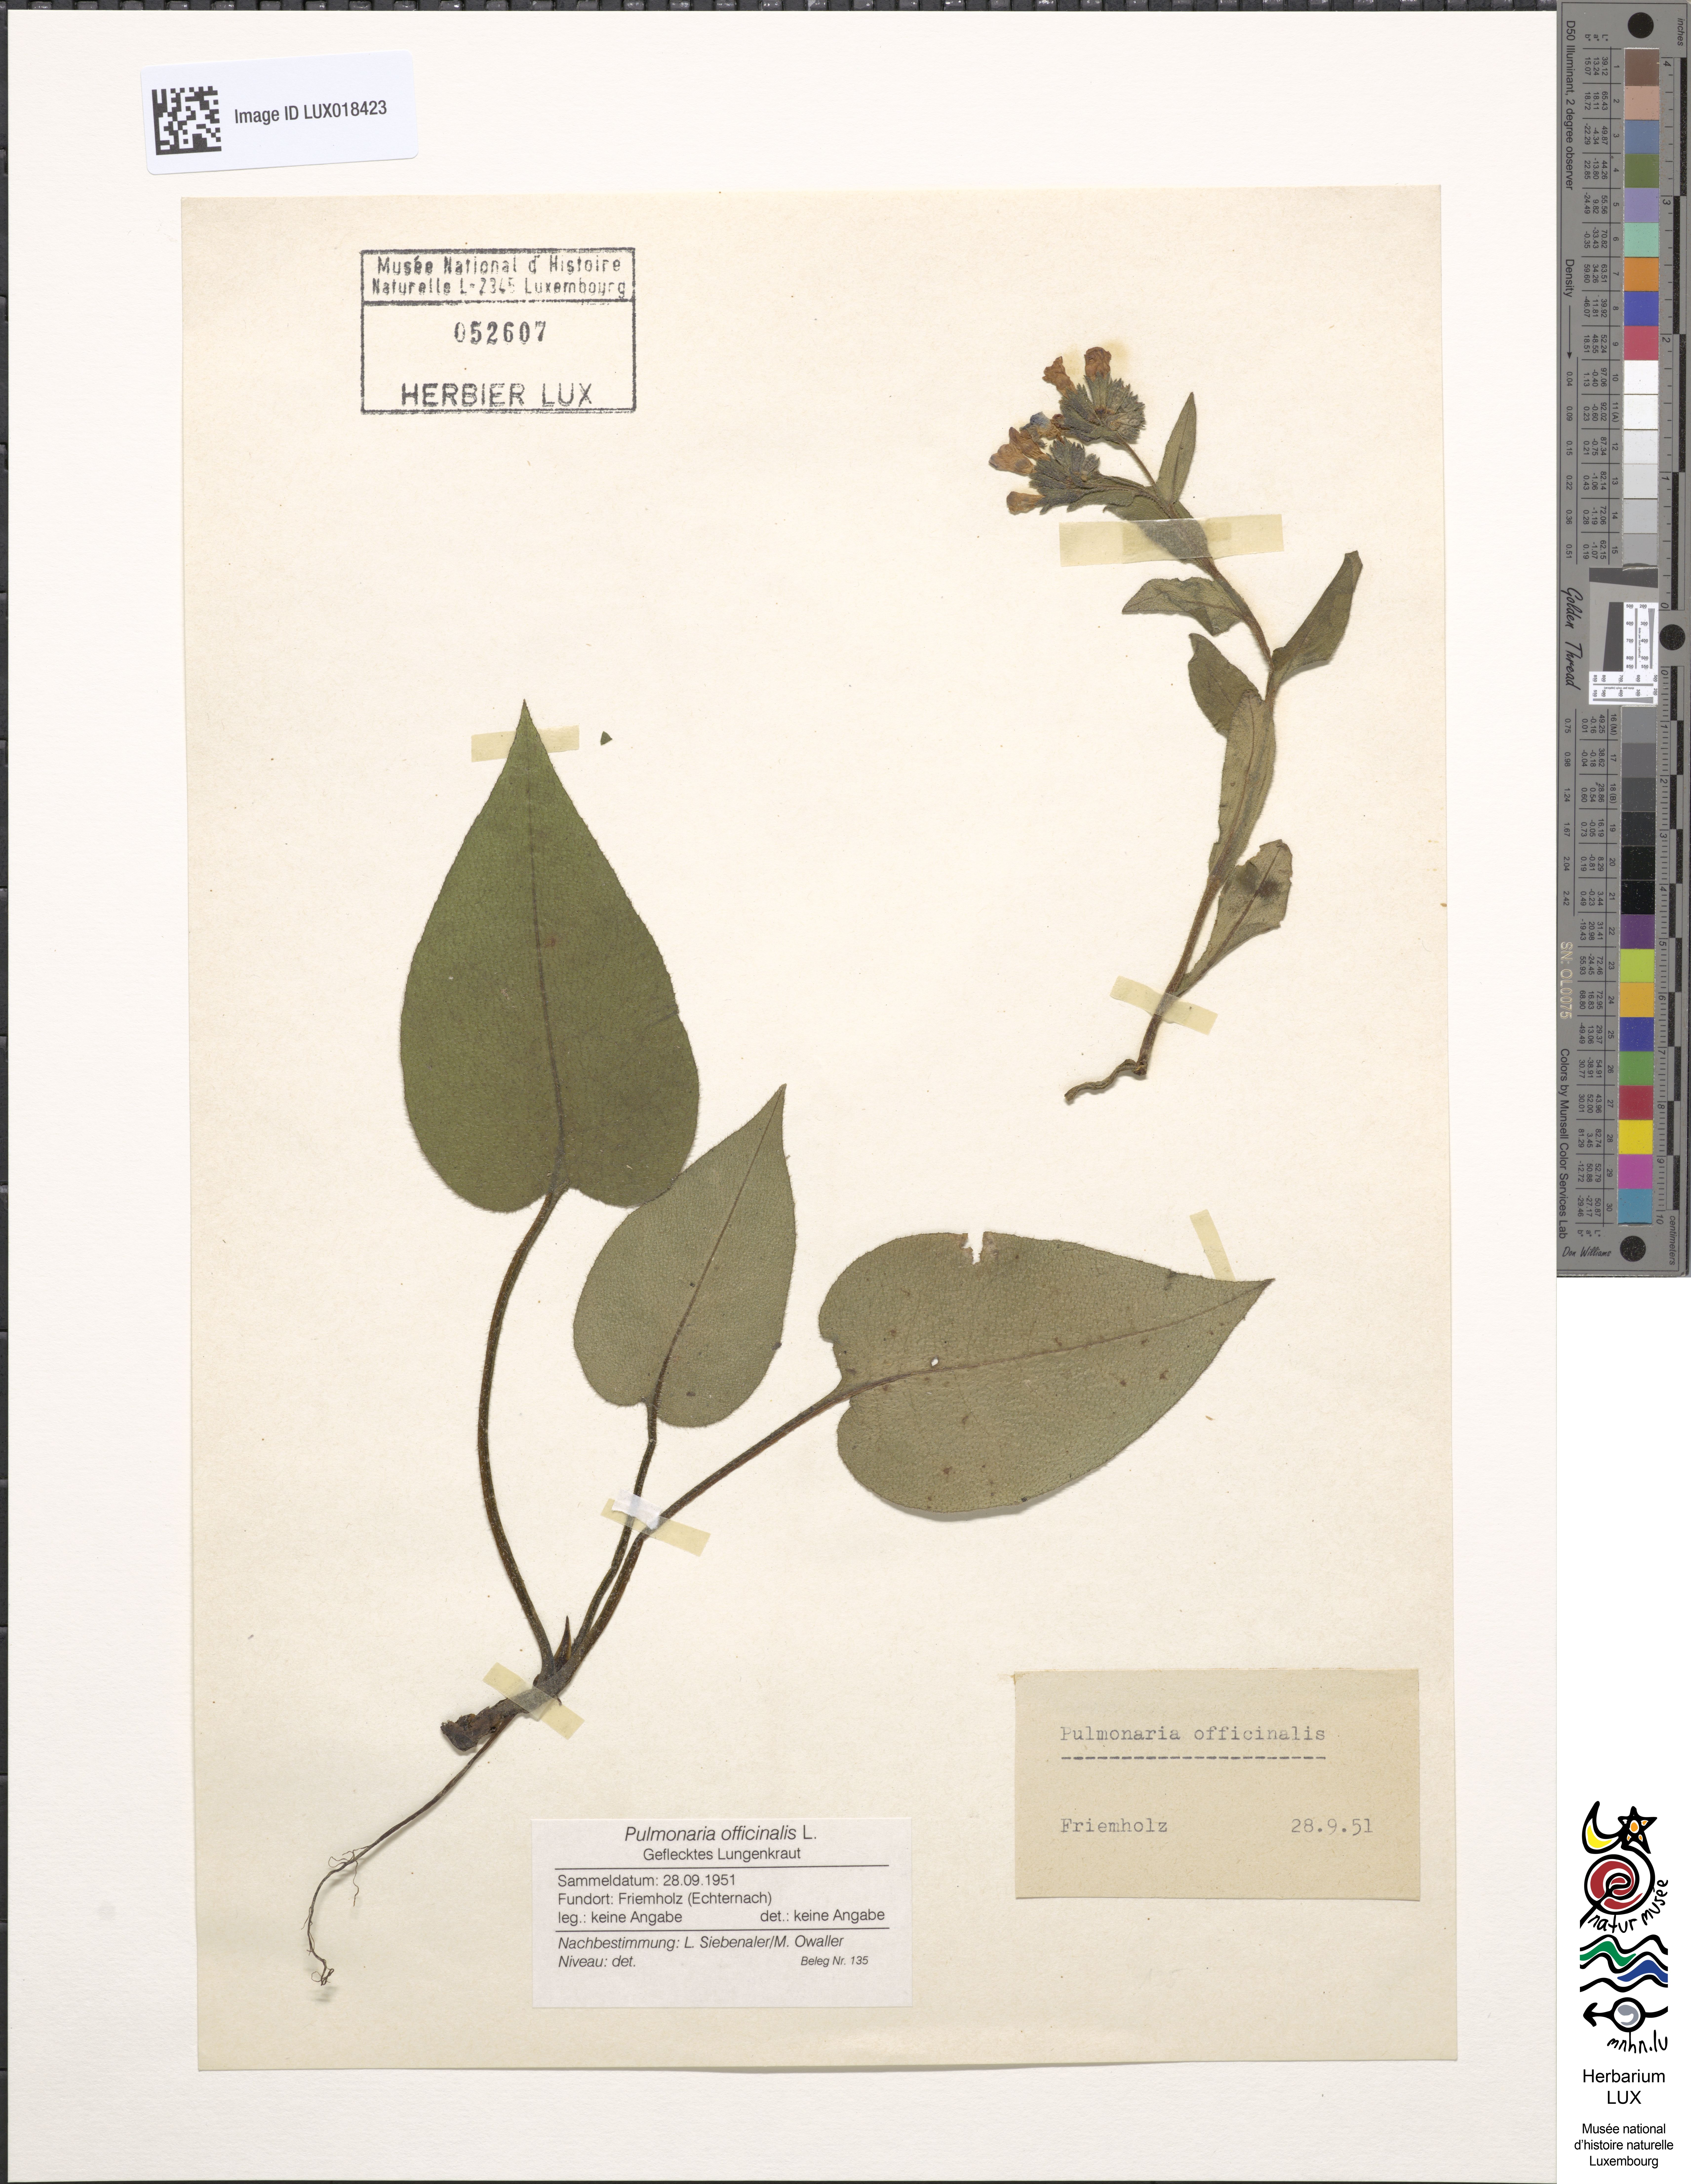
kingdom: Plantae
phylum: Tracheophyta
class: Magnoliopsida
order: Boraginales
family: Boraginaceae
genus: Pulmonaria
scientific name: Pulmonaria officinalis
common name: Lungwort
